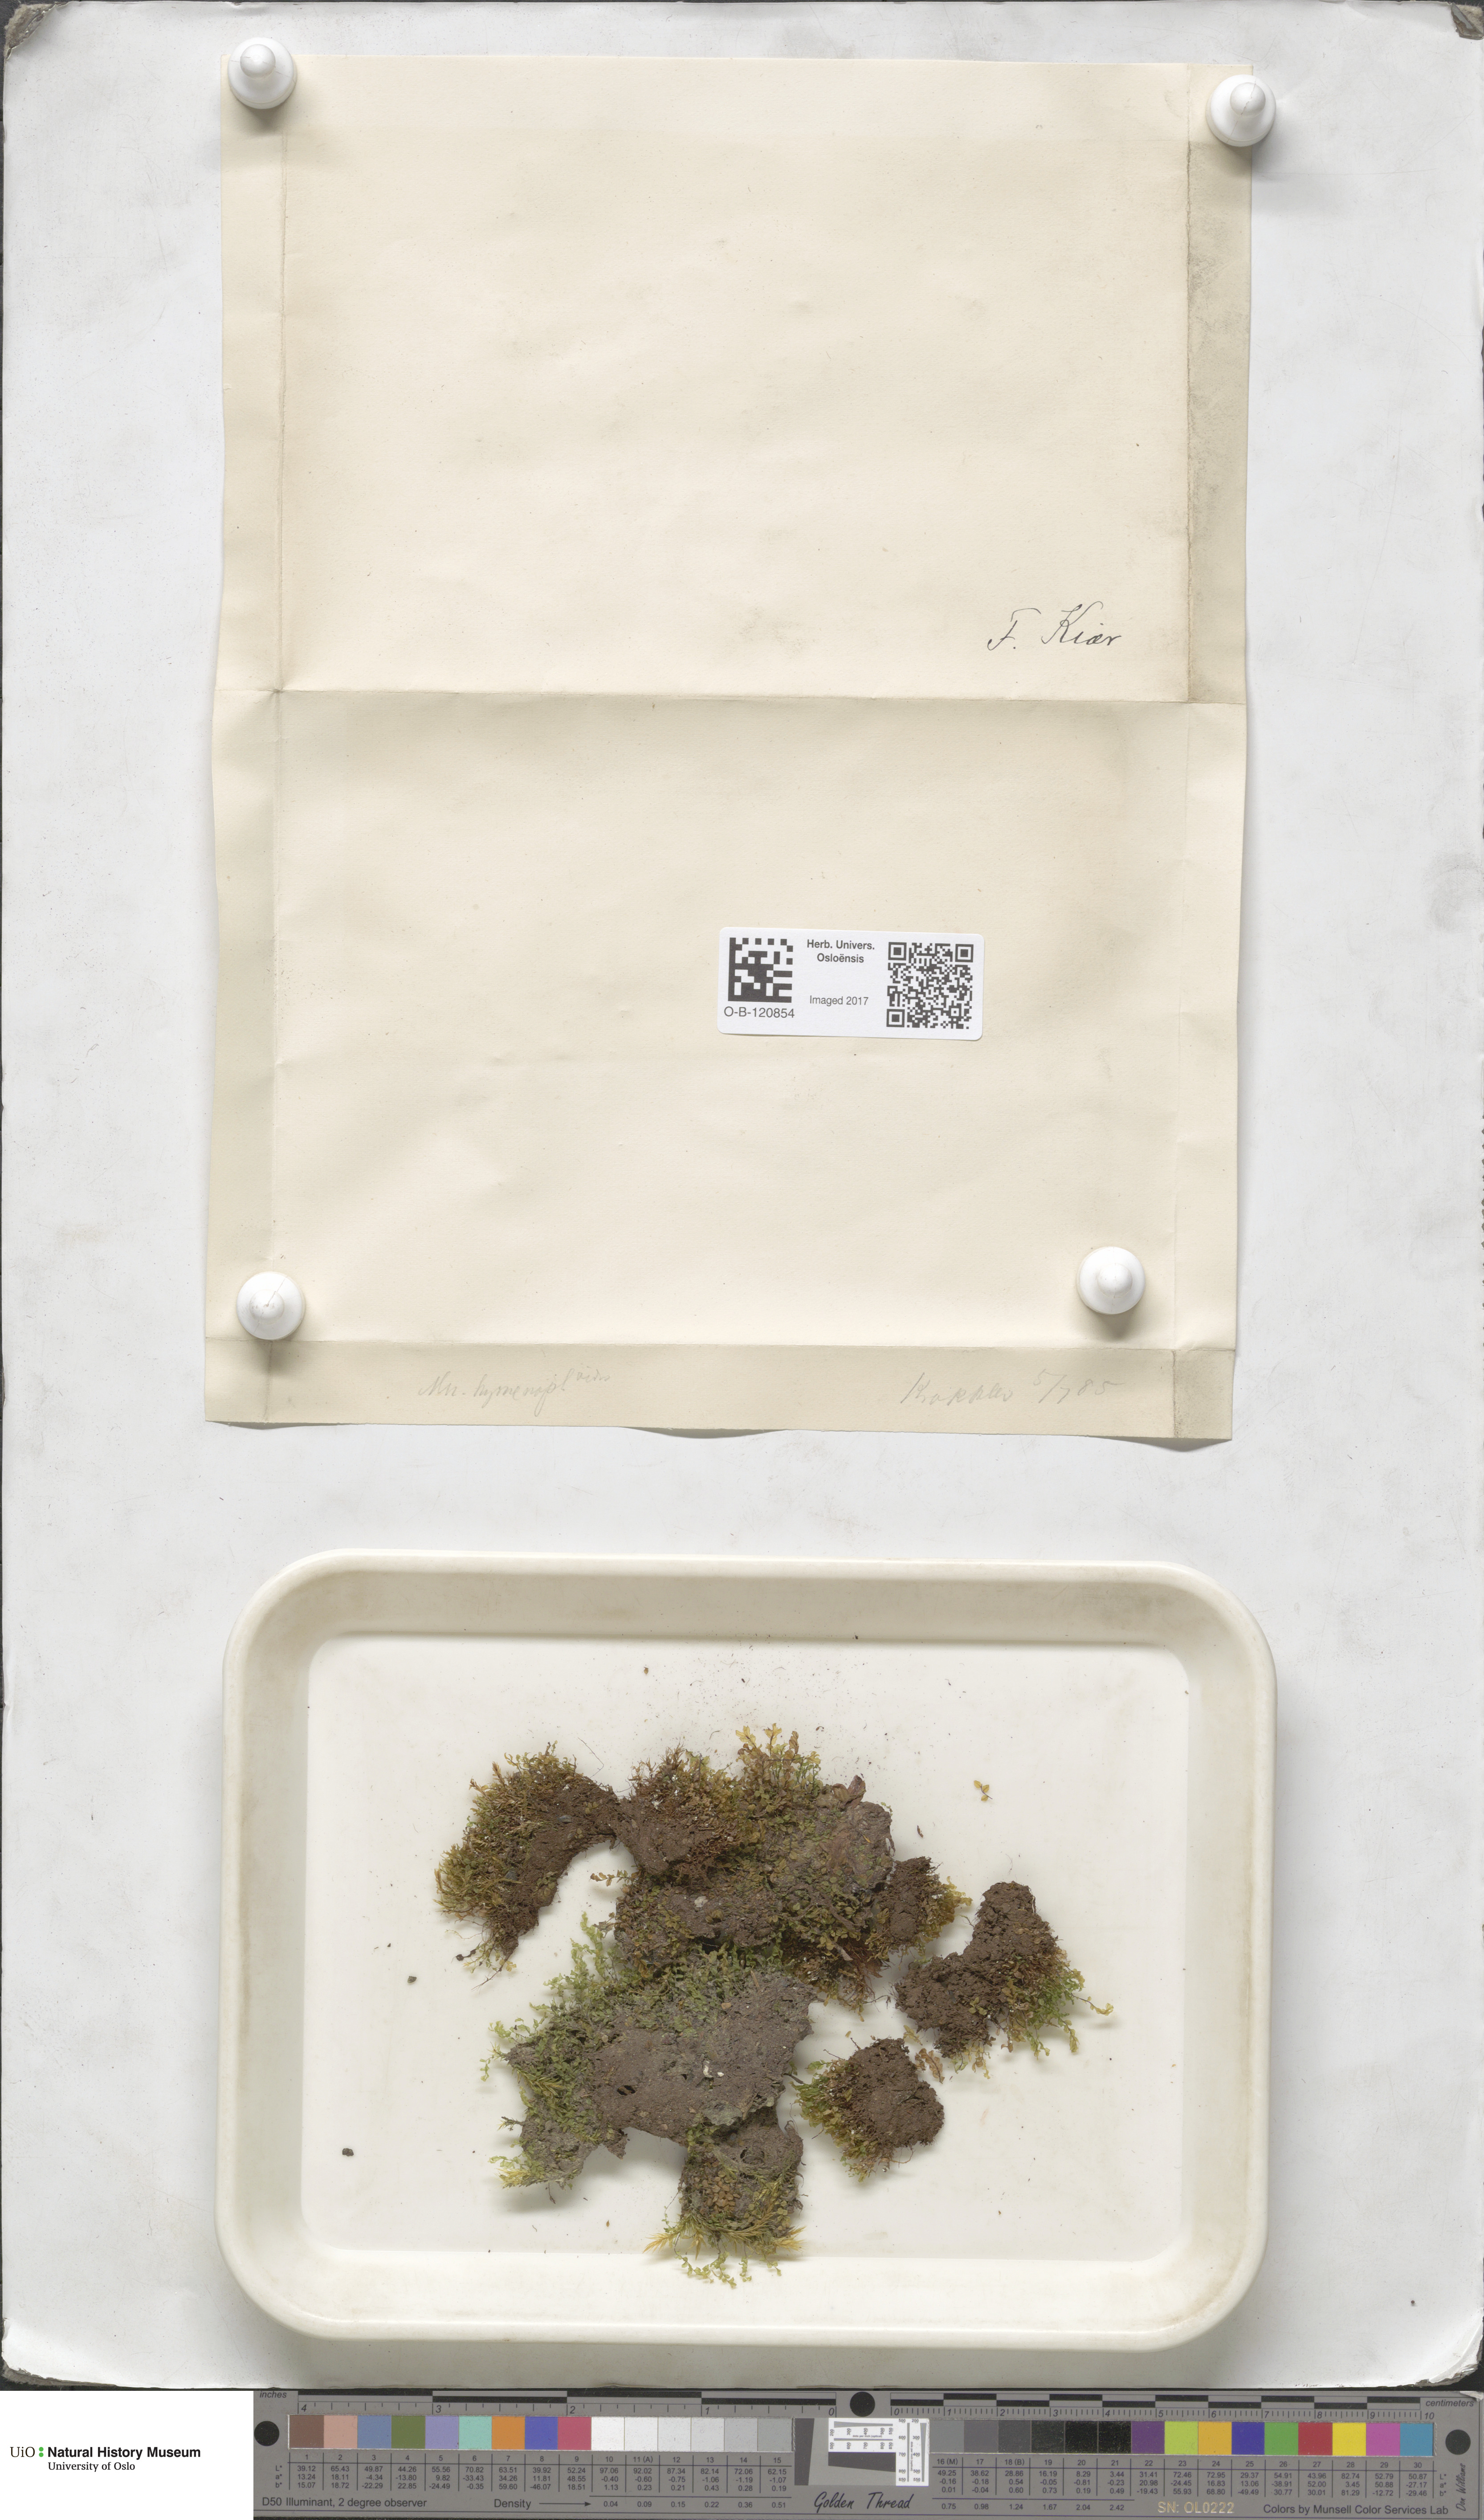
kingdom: Plantae
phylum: Bryophyta
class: Bryopsida
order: Bryales
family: Mniaceae
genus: Cyrtomnium
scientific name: Cyrtomnium hymenophylloides
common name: Short-pointed lantern moss
